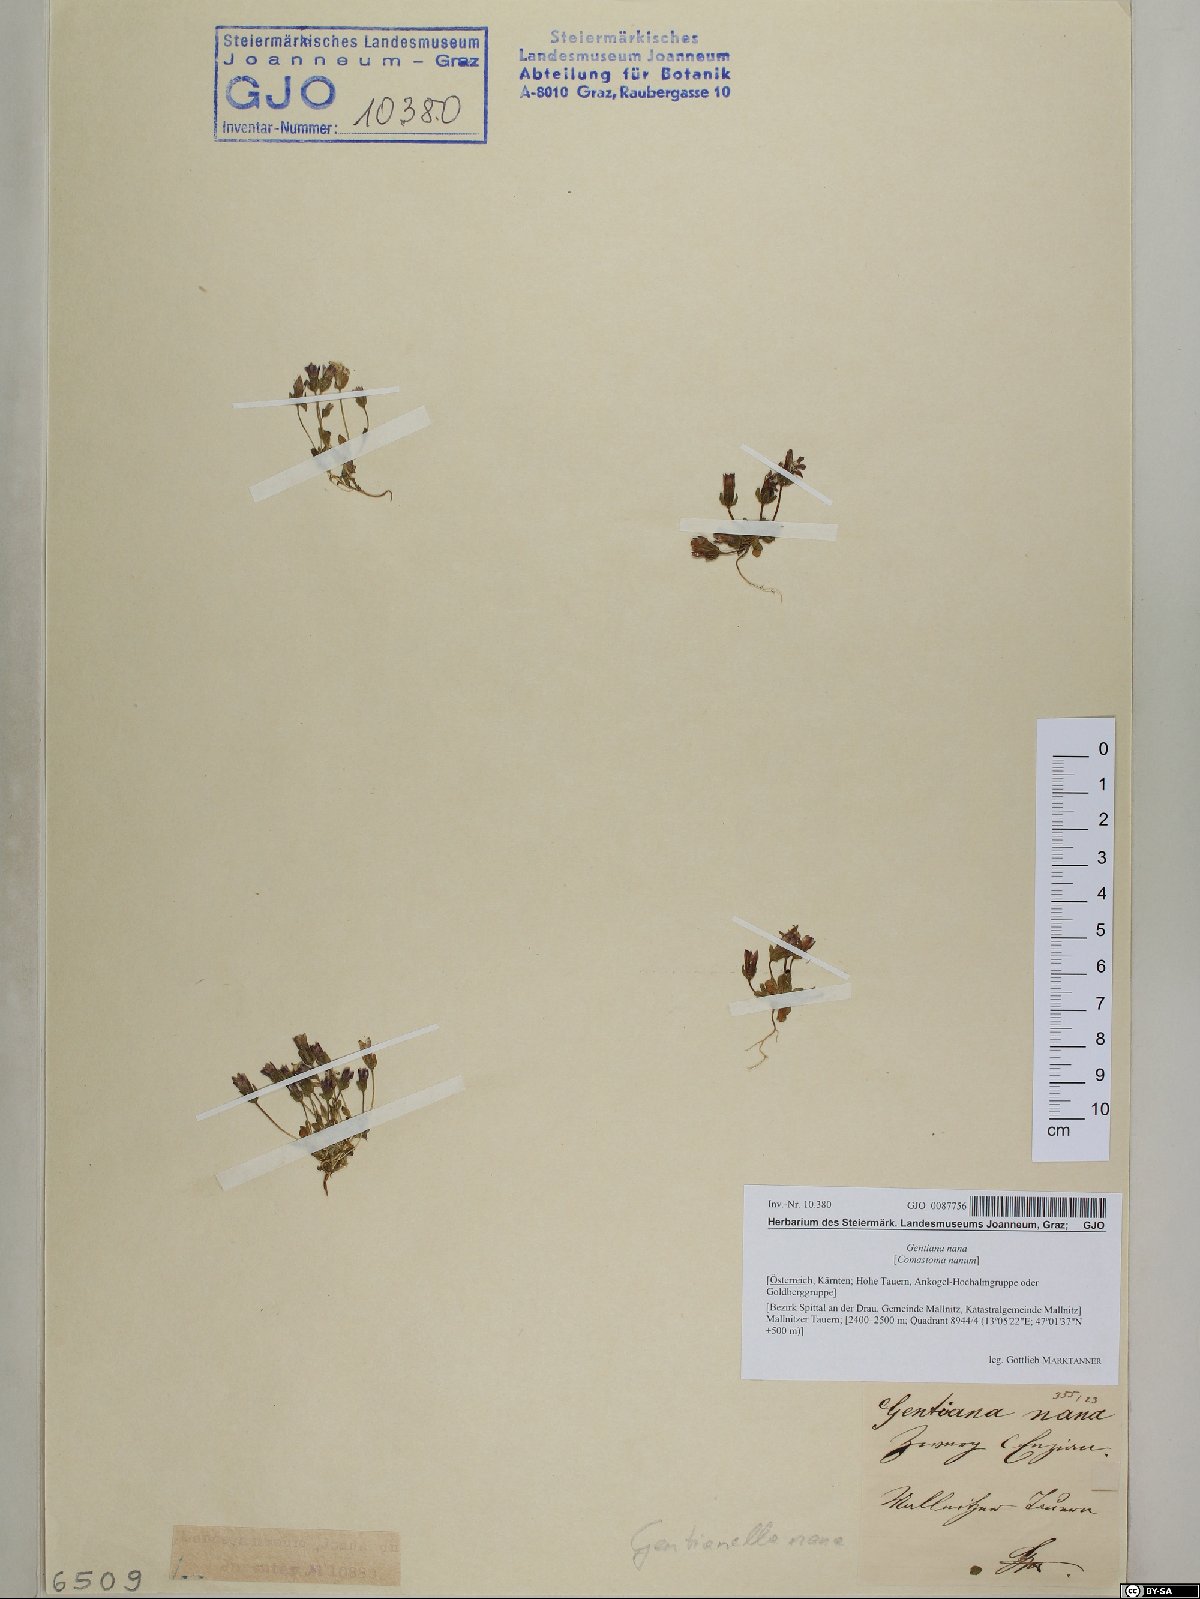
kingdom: Plantae
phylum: Tracheophyta
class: Magnoliopsida
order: Gentianales
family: Gentianaceae
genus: Comastoma
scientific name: Comastoma nanum
